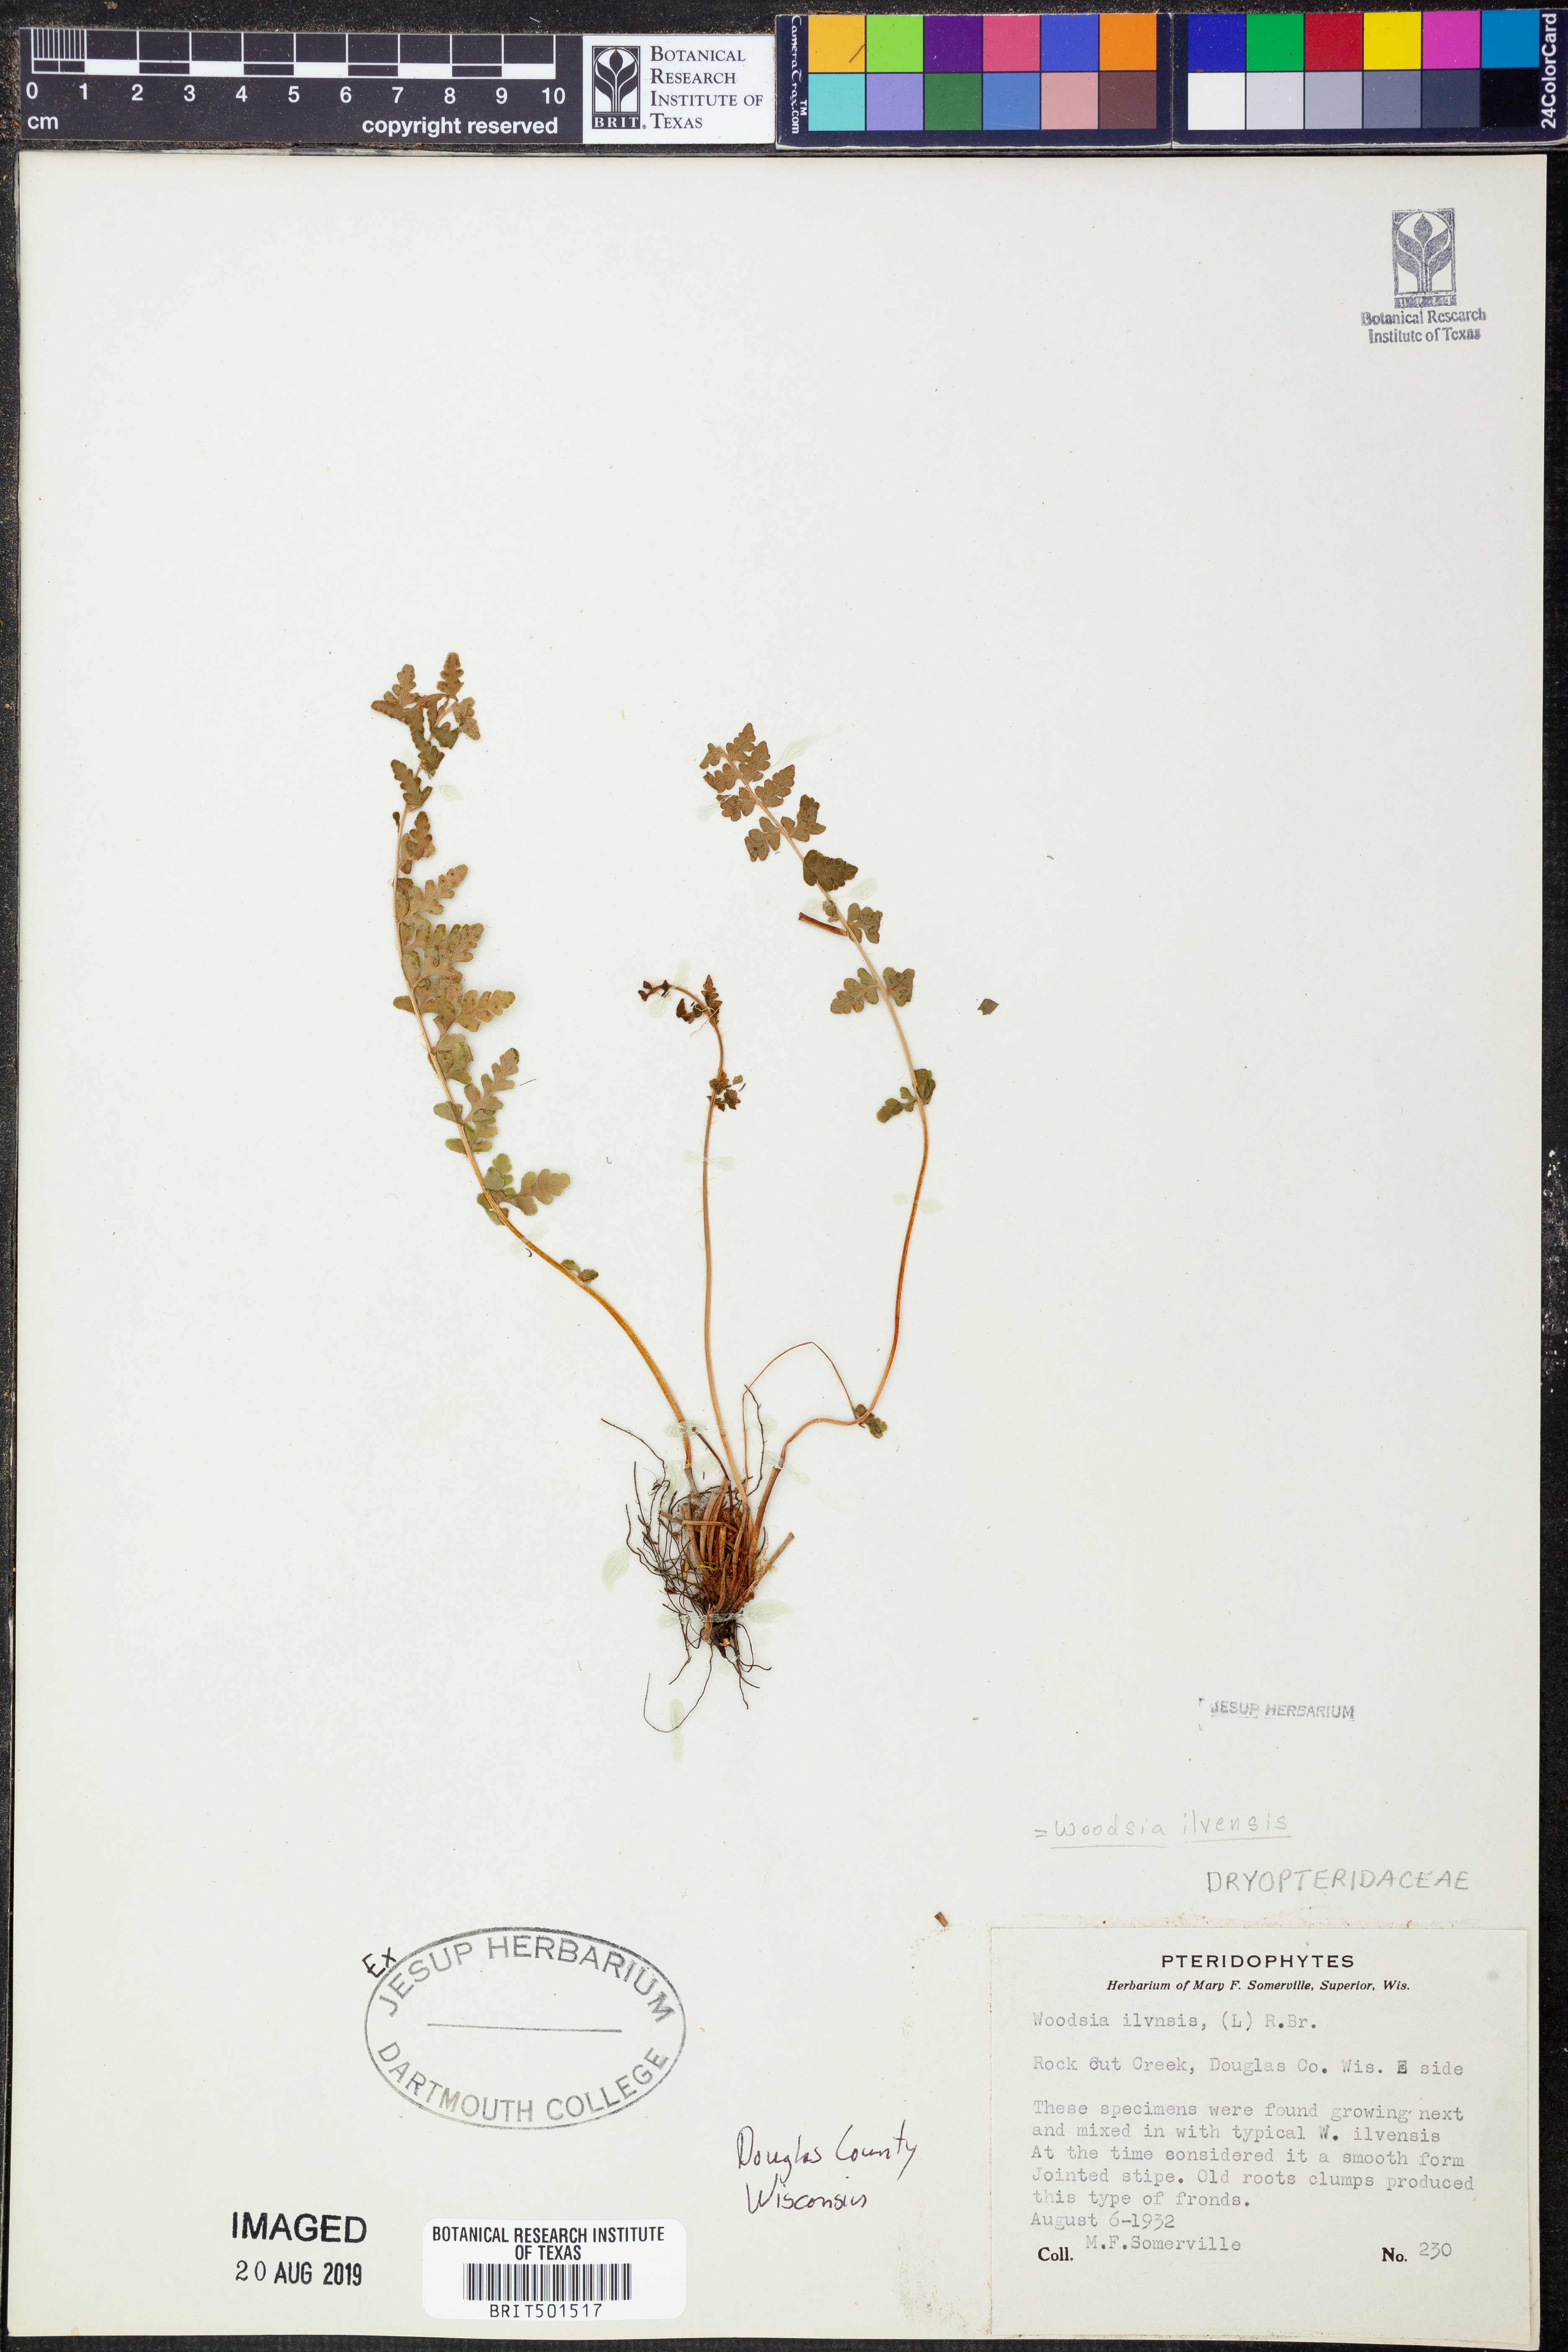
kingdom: Plantae
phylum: Tracheophyta
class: Polypodiopsida
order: Polypodiales
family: Woodsiaceae
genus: Woodsia
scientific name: Woodsia ilvensis
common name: Fragrant woodsia
